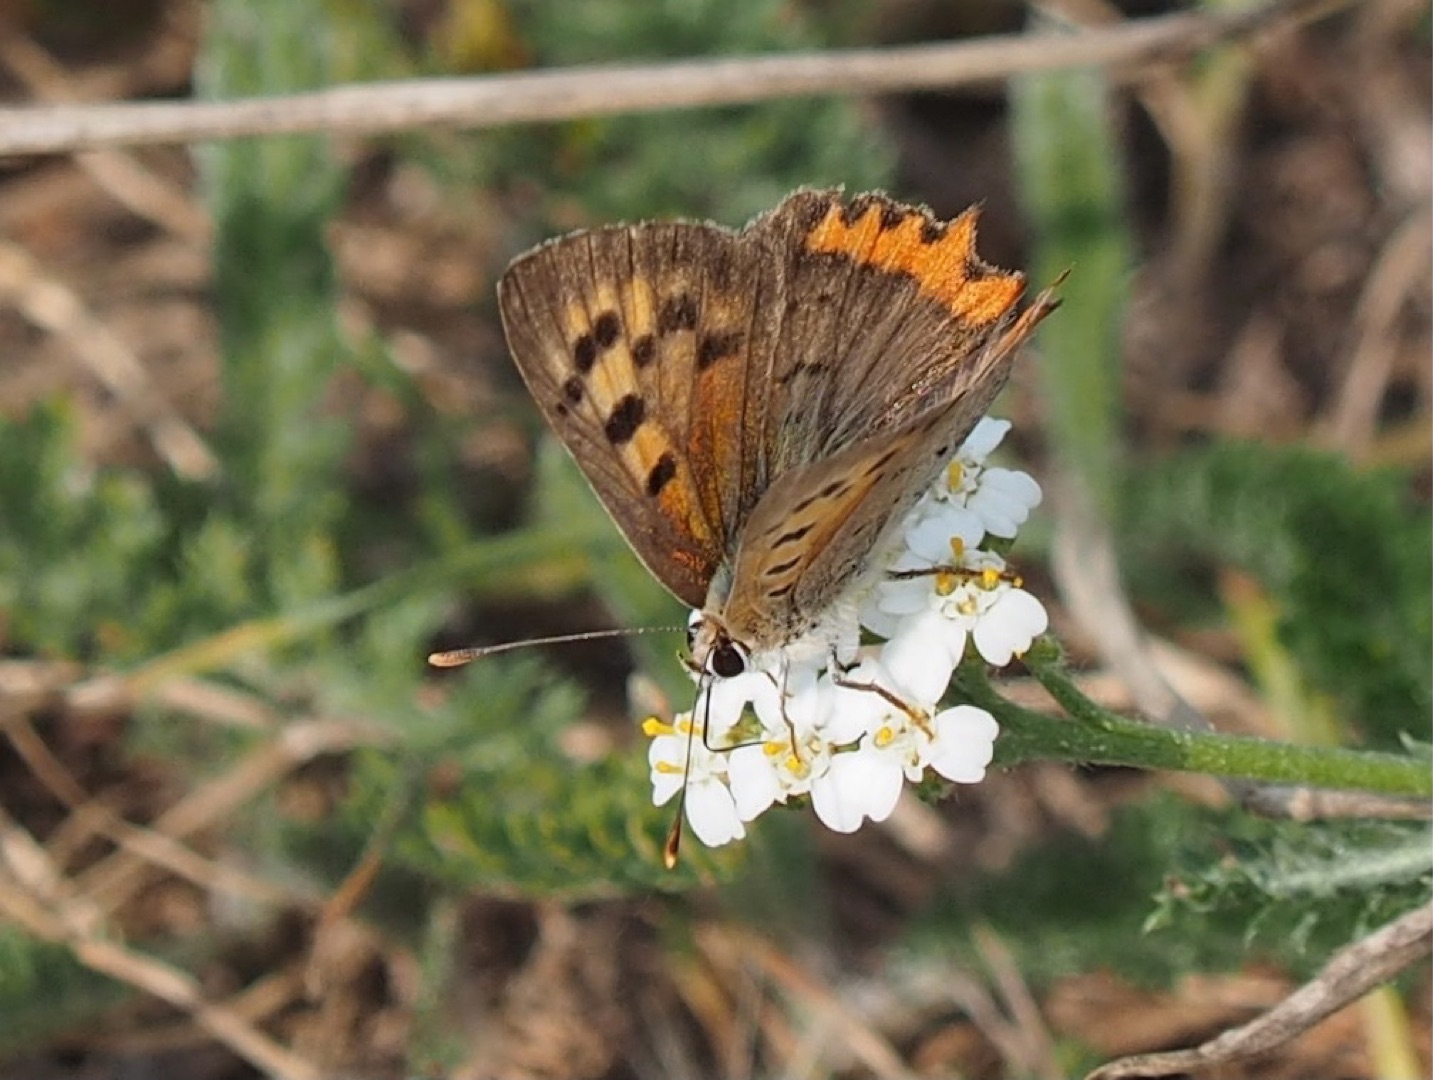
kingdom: Animalia
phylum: Arthropoda
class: Insecta
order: Lepidoptera
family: Lycaenidae
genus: Lycaena
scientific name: Lycaena phlaeas
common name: Lille ildfugl
